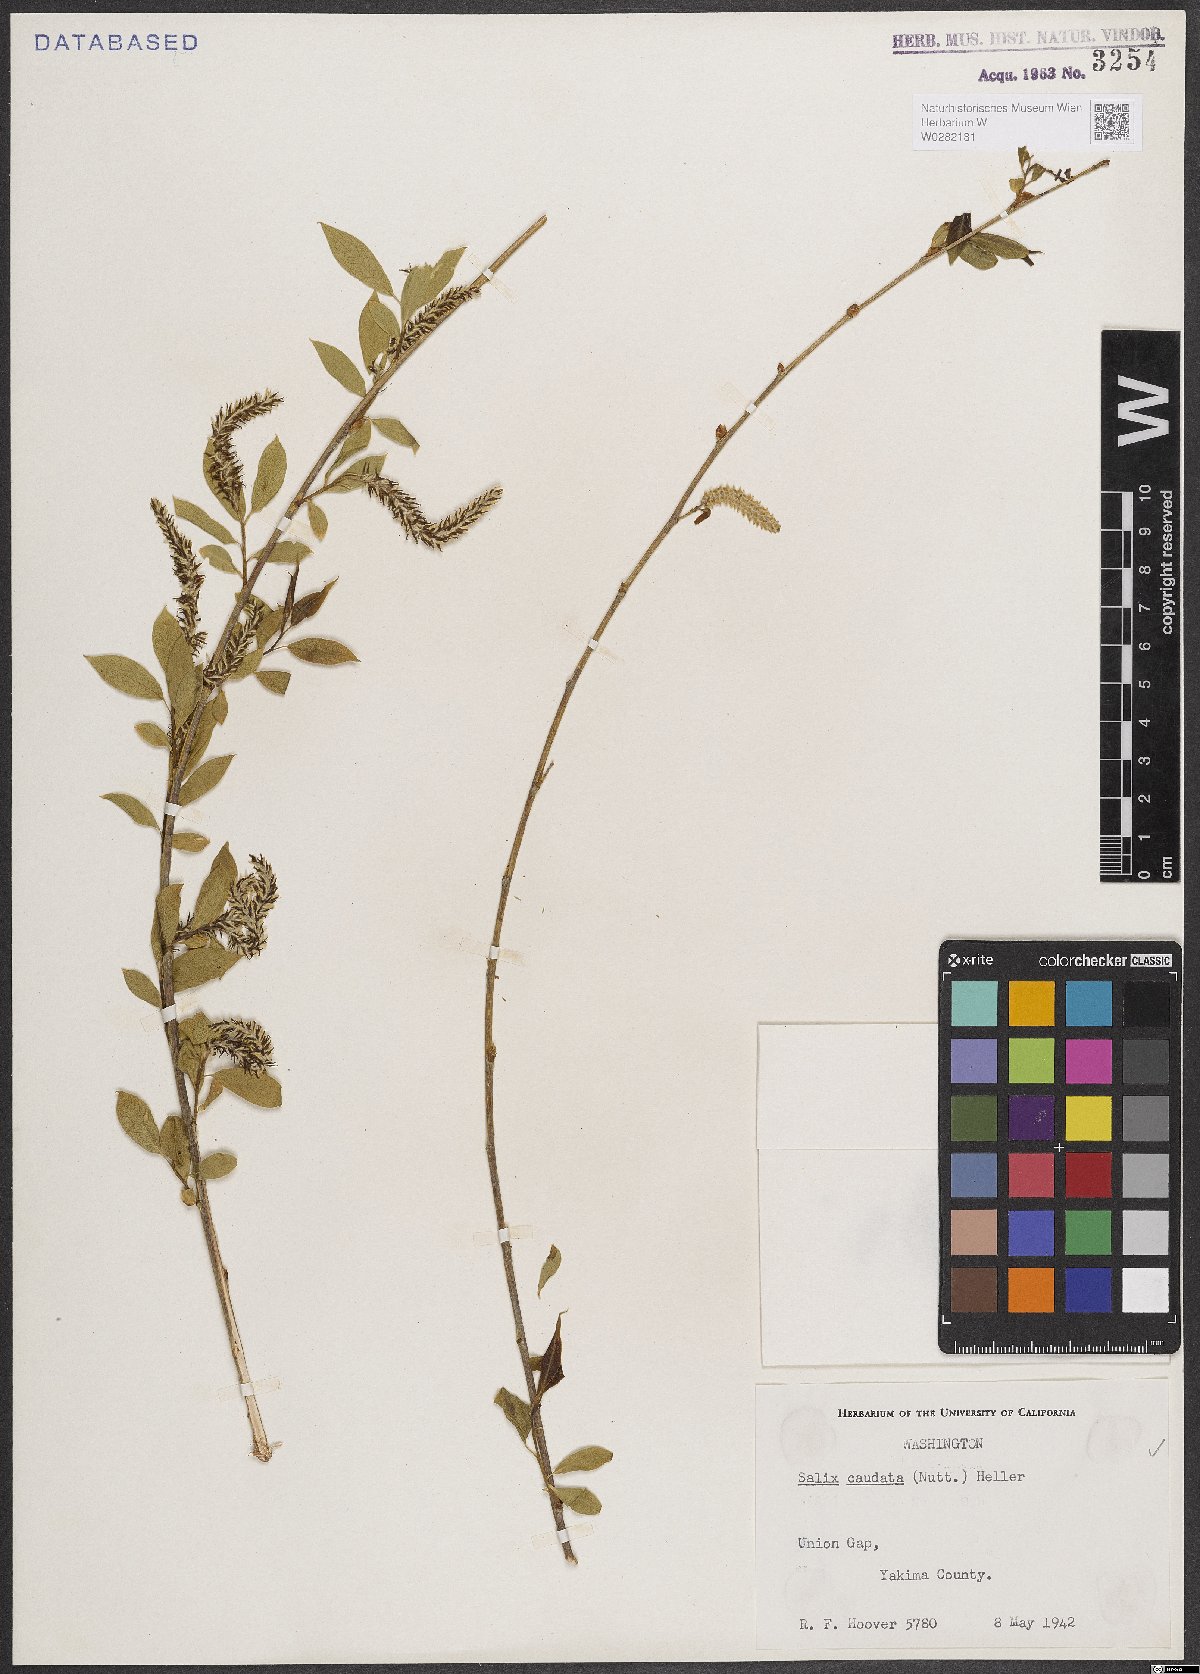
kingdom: Plantae
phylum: Tracheophyta
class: Magnoliopsida
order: Malpighiales
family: Salicaceae
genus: Salix
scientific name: Salix lucida
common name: Shining willow
